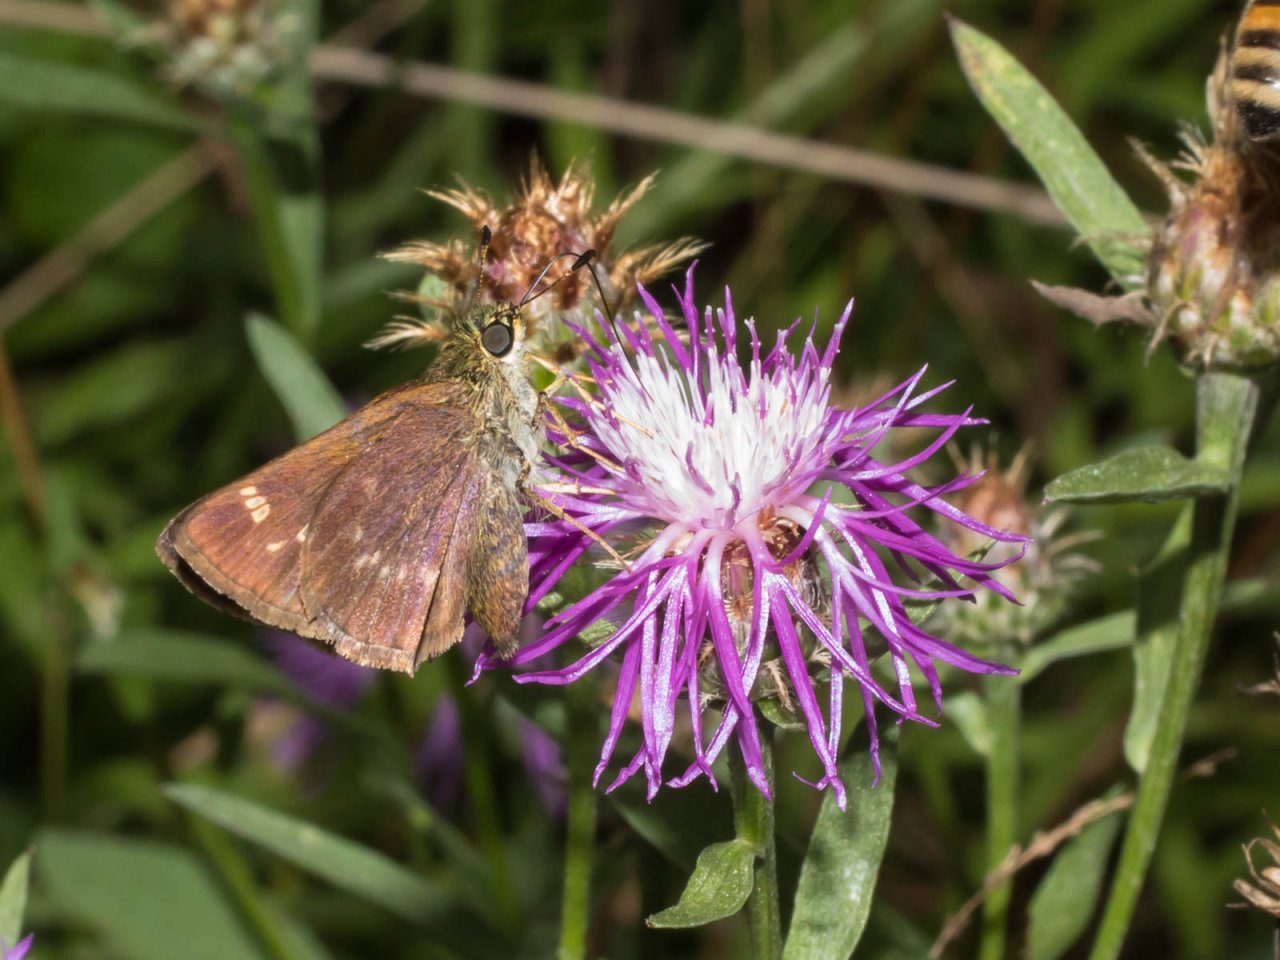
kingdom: Animalia
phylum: Arthropoda
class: Insecta
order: Lepidoptera
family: Hesperiidae
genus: Vernia
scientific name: Vernia verna
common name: Little Glassywing
